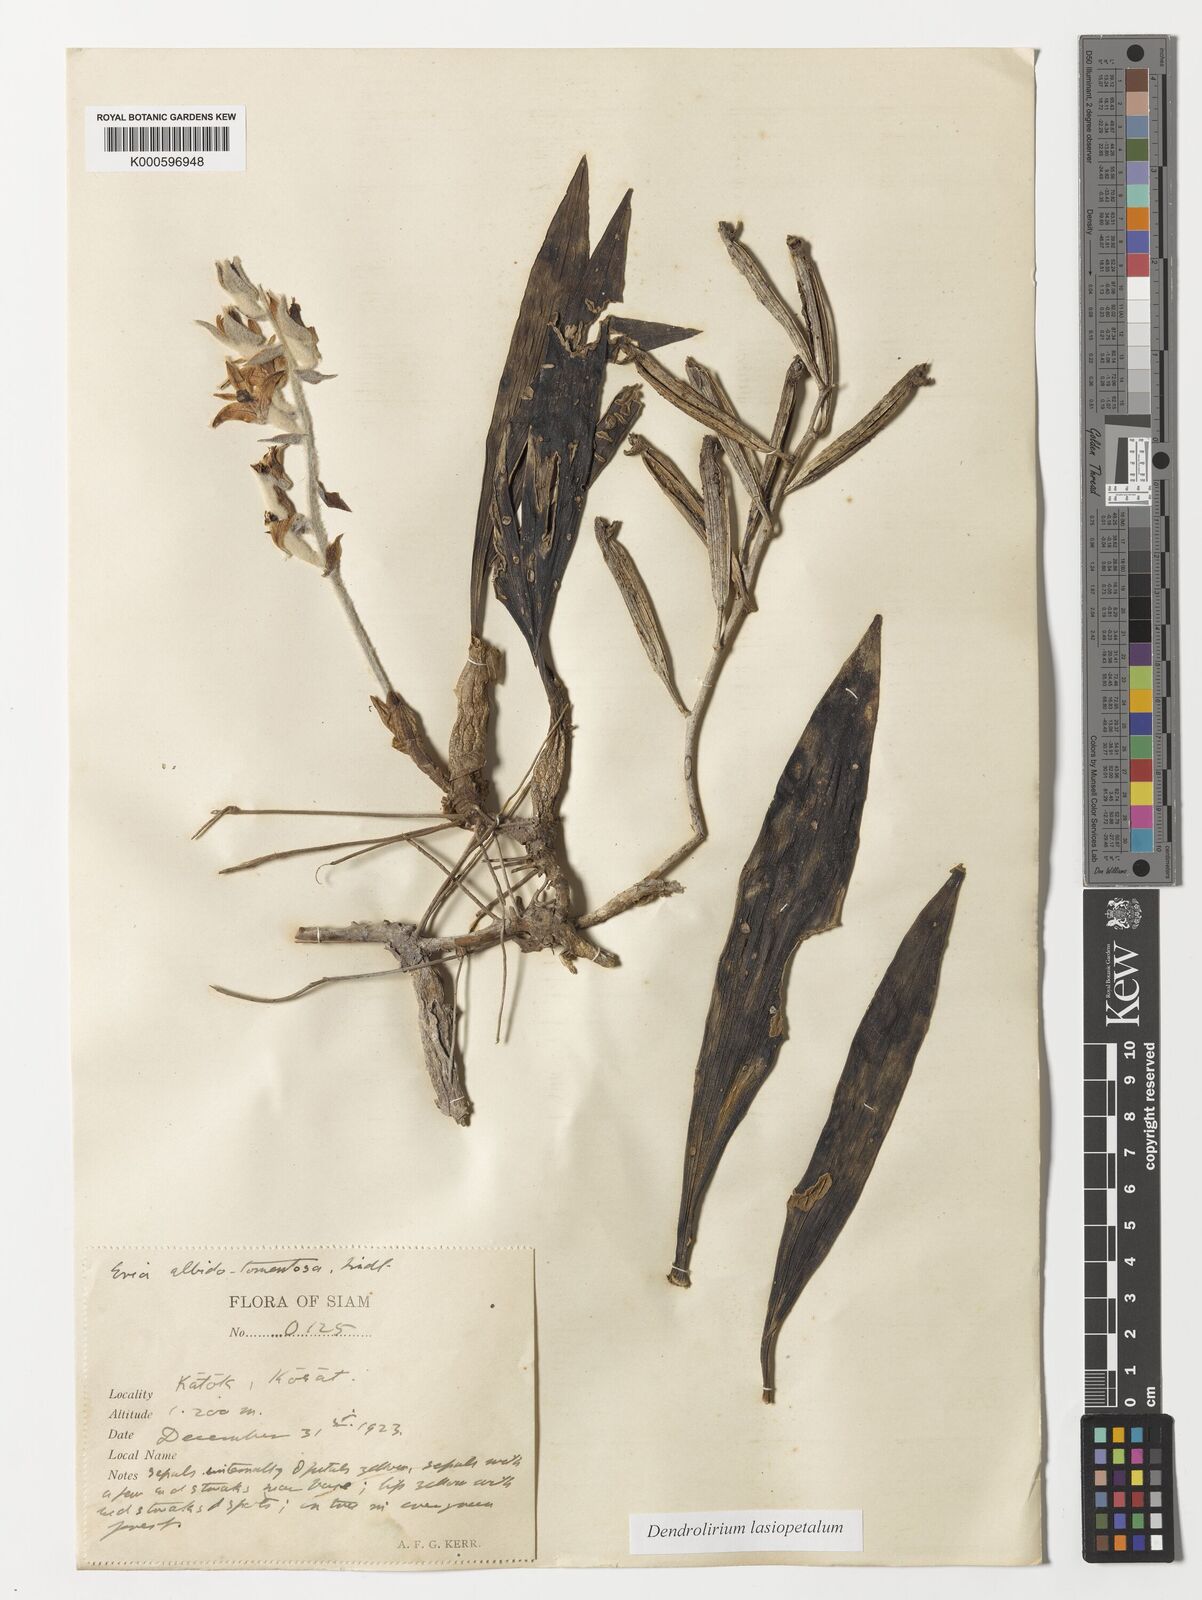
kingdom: Plantae
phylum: Tracheophyta
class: Liliopsida
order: Asparagales
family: Orchidaceae
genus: Dendrolirium
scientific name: Dendrolirium lasiopetalum
